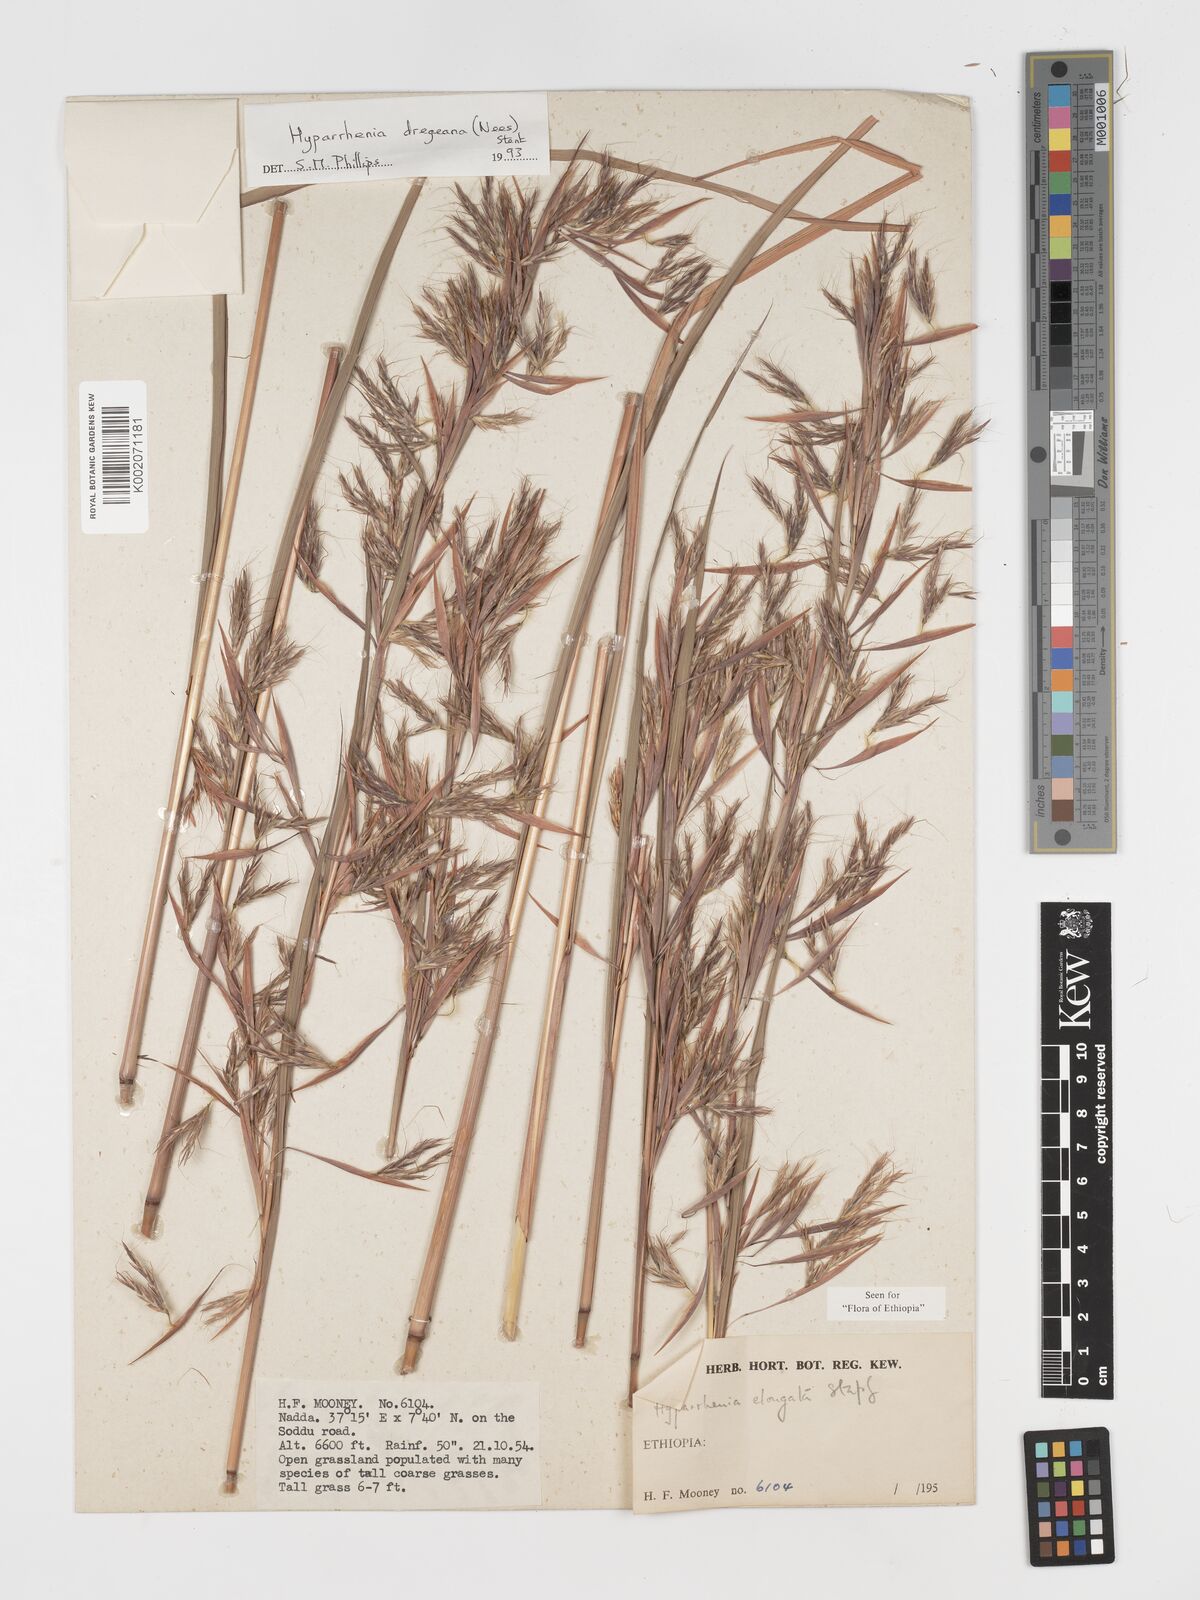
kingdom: Plantae
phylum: Tracheophyta
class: Liliopsida
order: Poales
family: Poaceae
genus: Hyparrhenia
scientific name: Hyparrhenia dregeana
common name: Silky thatching grass
